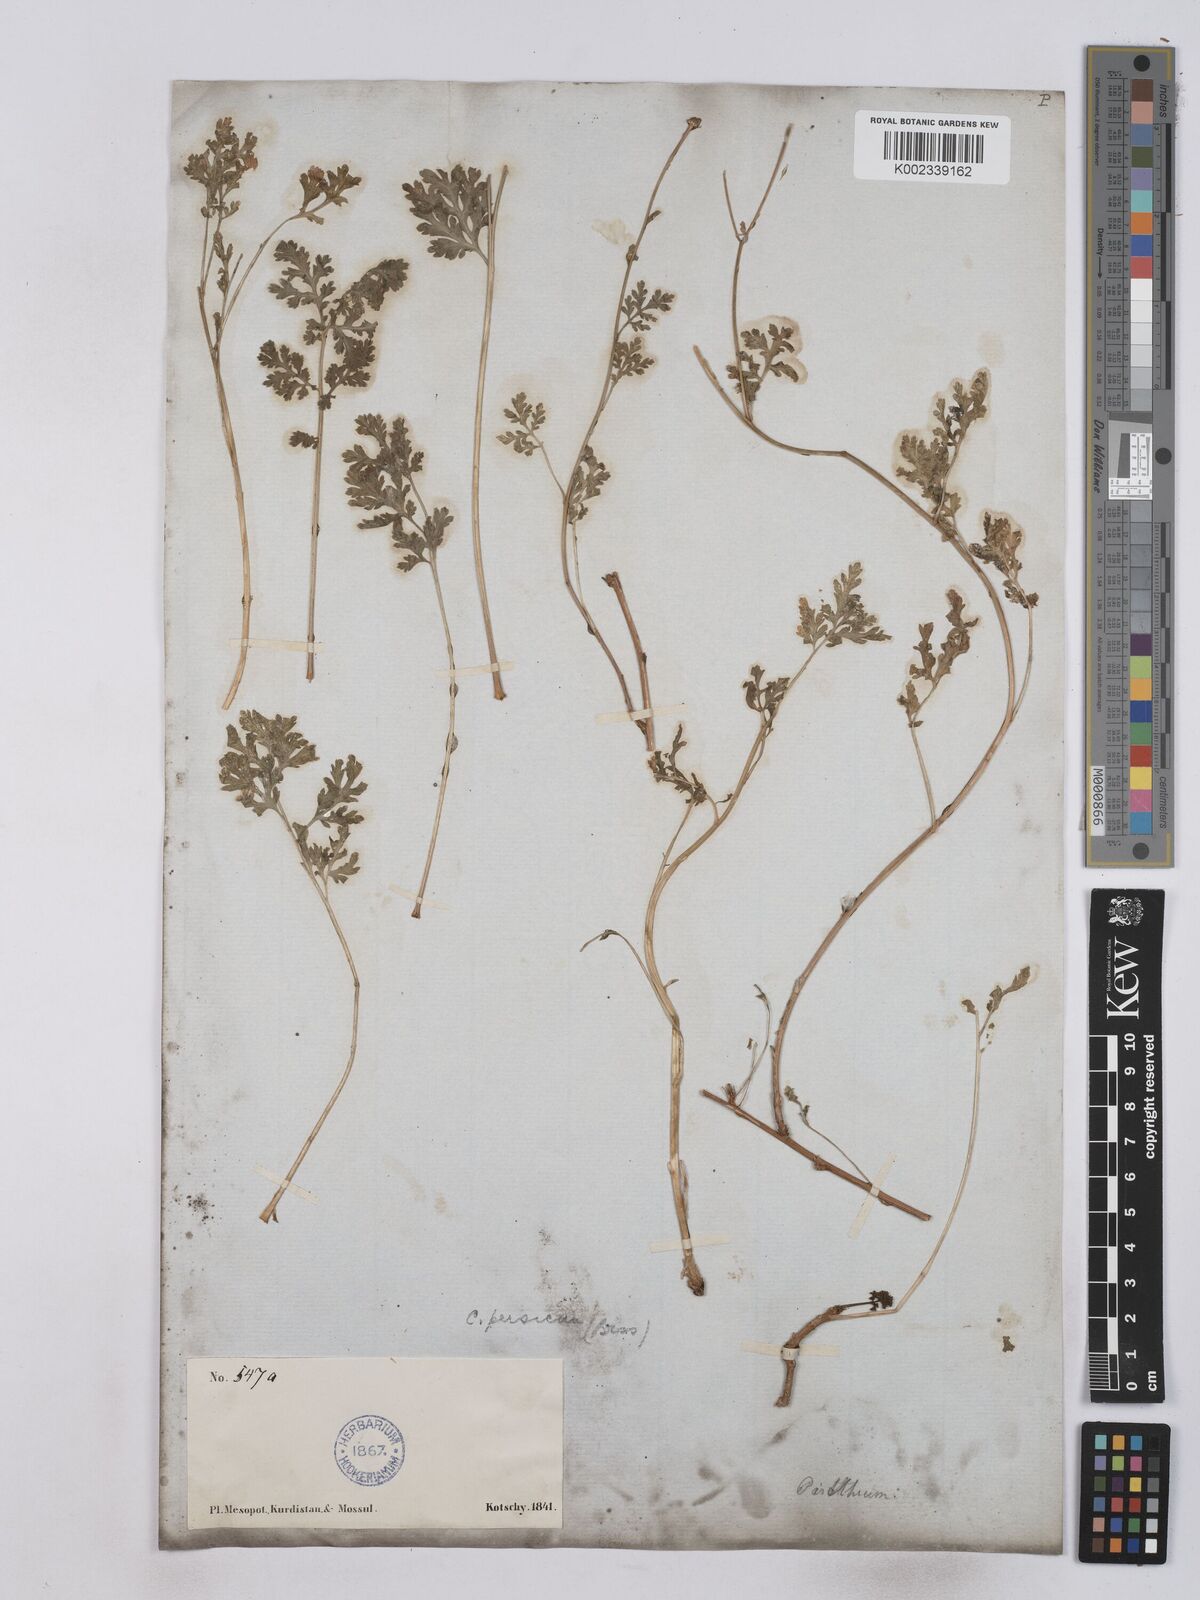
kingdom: Plantae
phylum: Tracheophyta
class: Magnoliopsida
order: Asterales
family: Asteraceae
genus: Tanacetum
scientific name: Tanacetum partheniifolium
